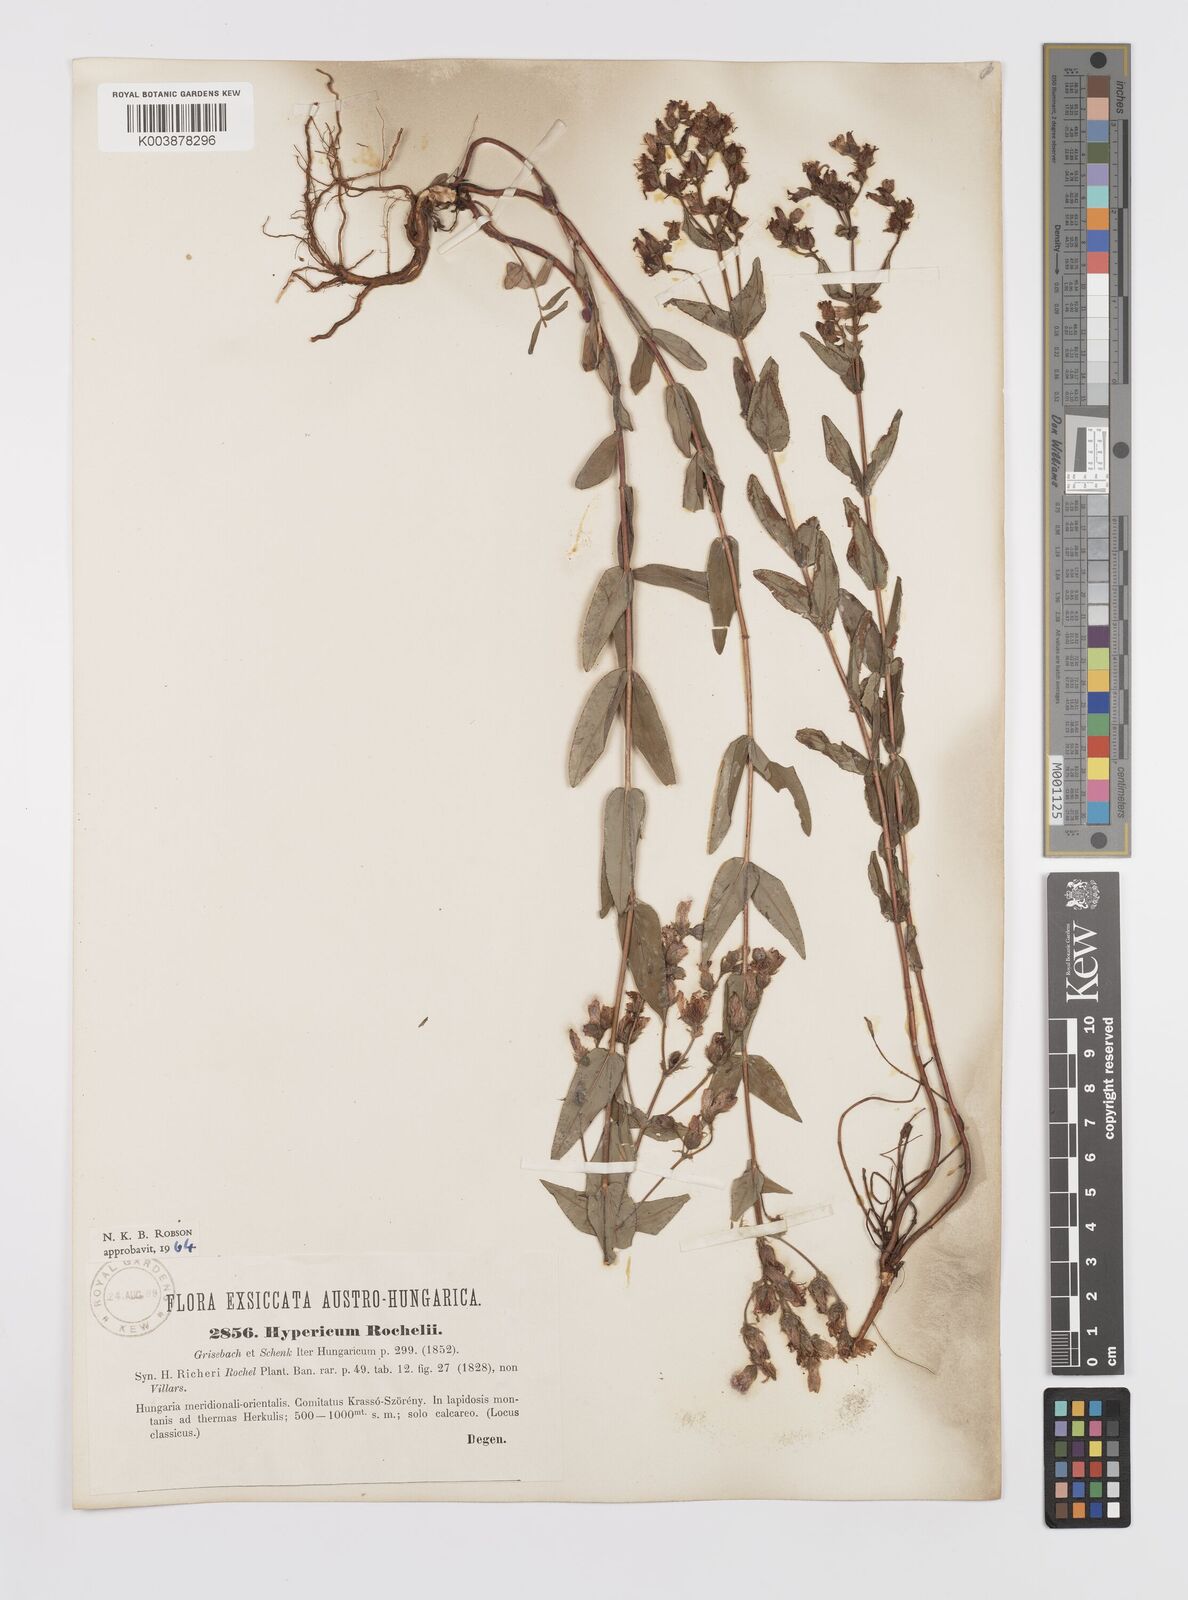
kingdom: Plantae
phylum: Tracheophyta
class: Magnoliopsida
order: Malpighiales
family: Hypericaceae
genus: Hypericum
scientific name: Hypericum rochelii
